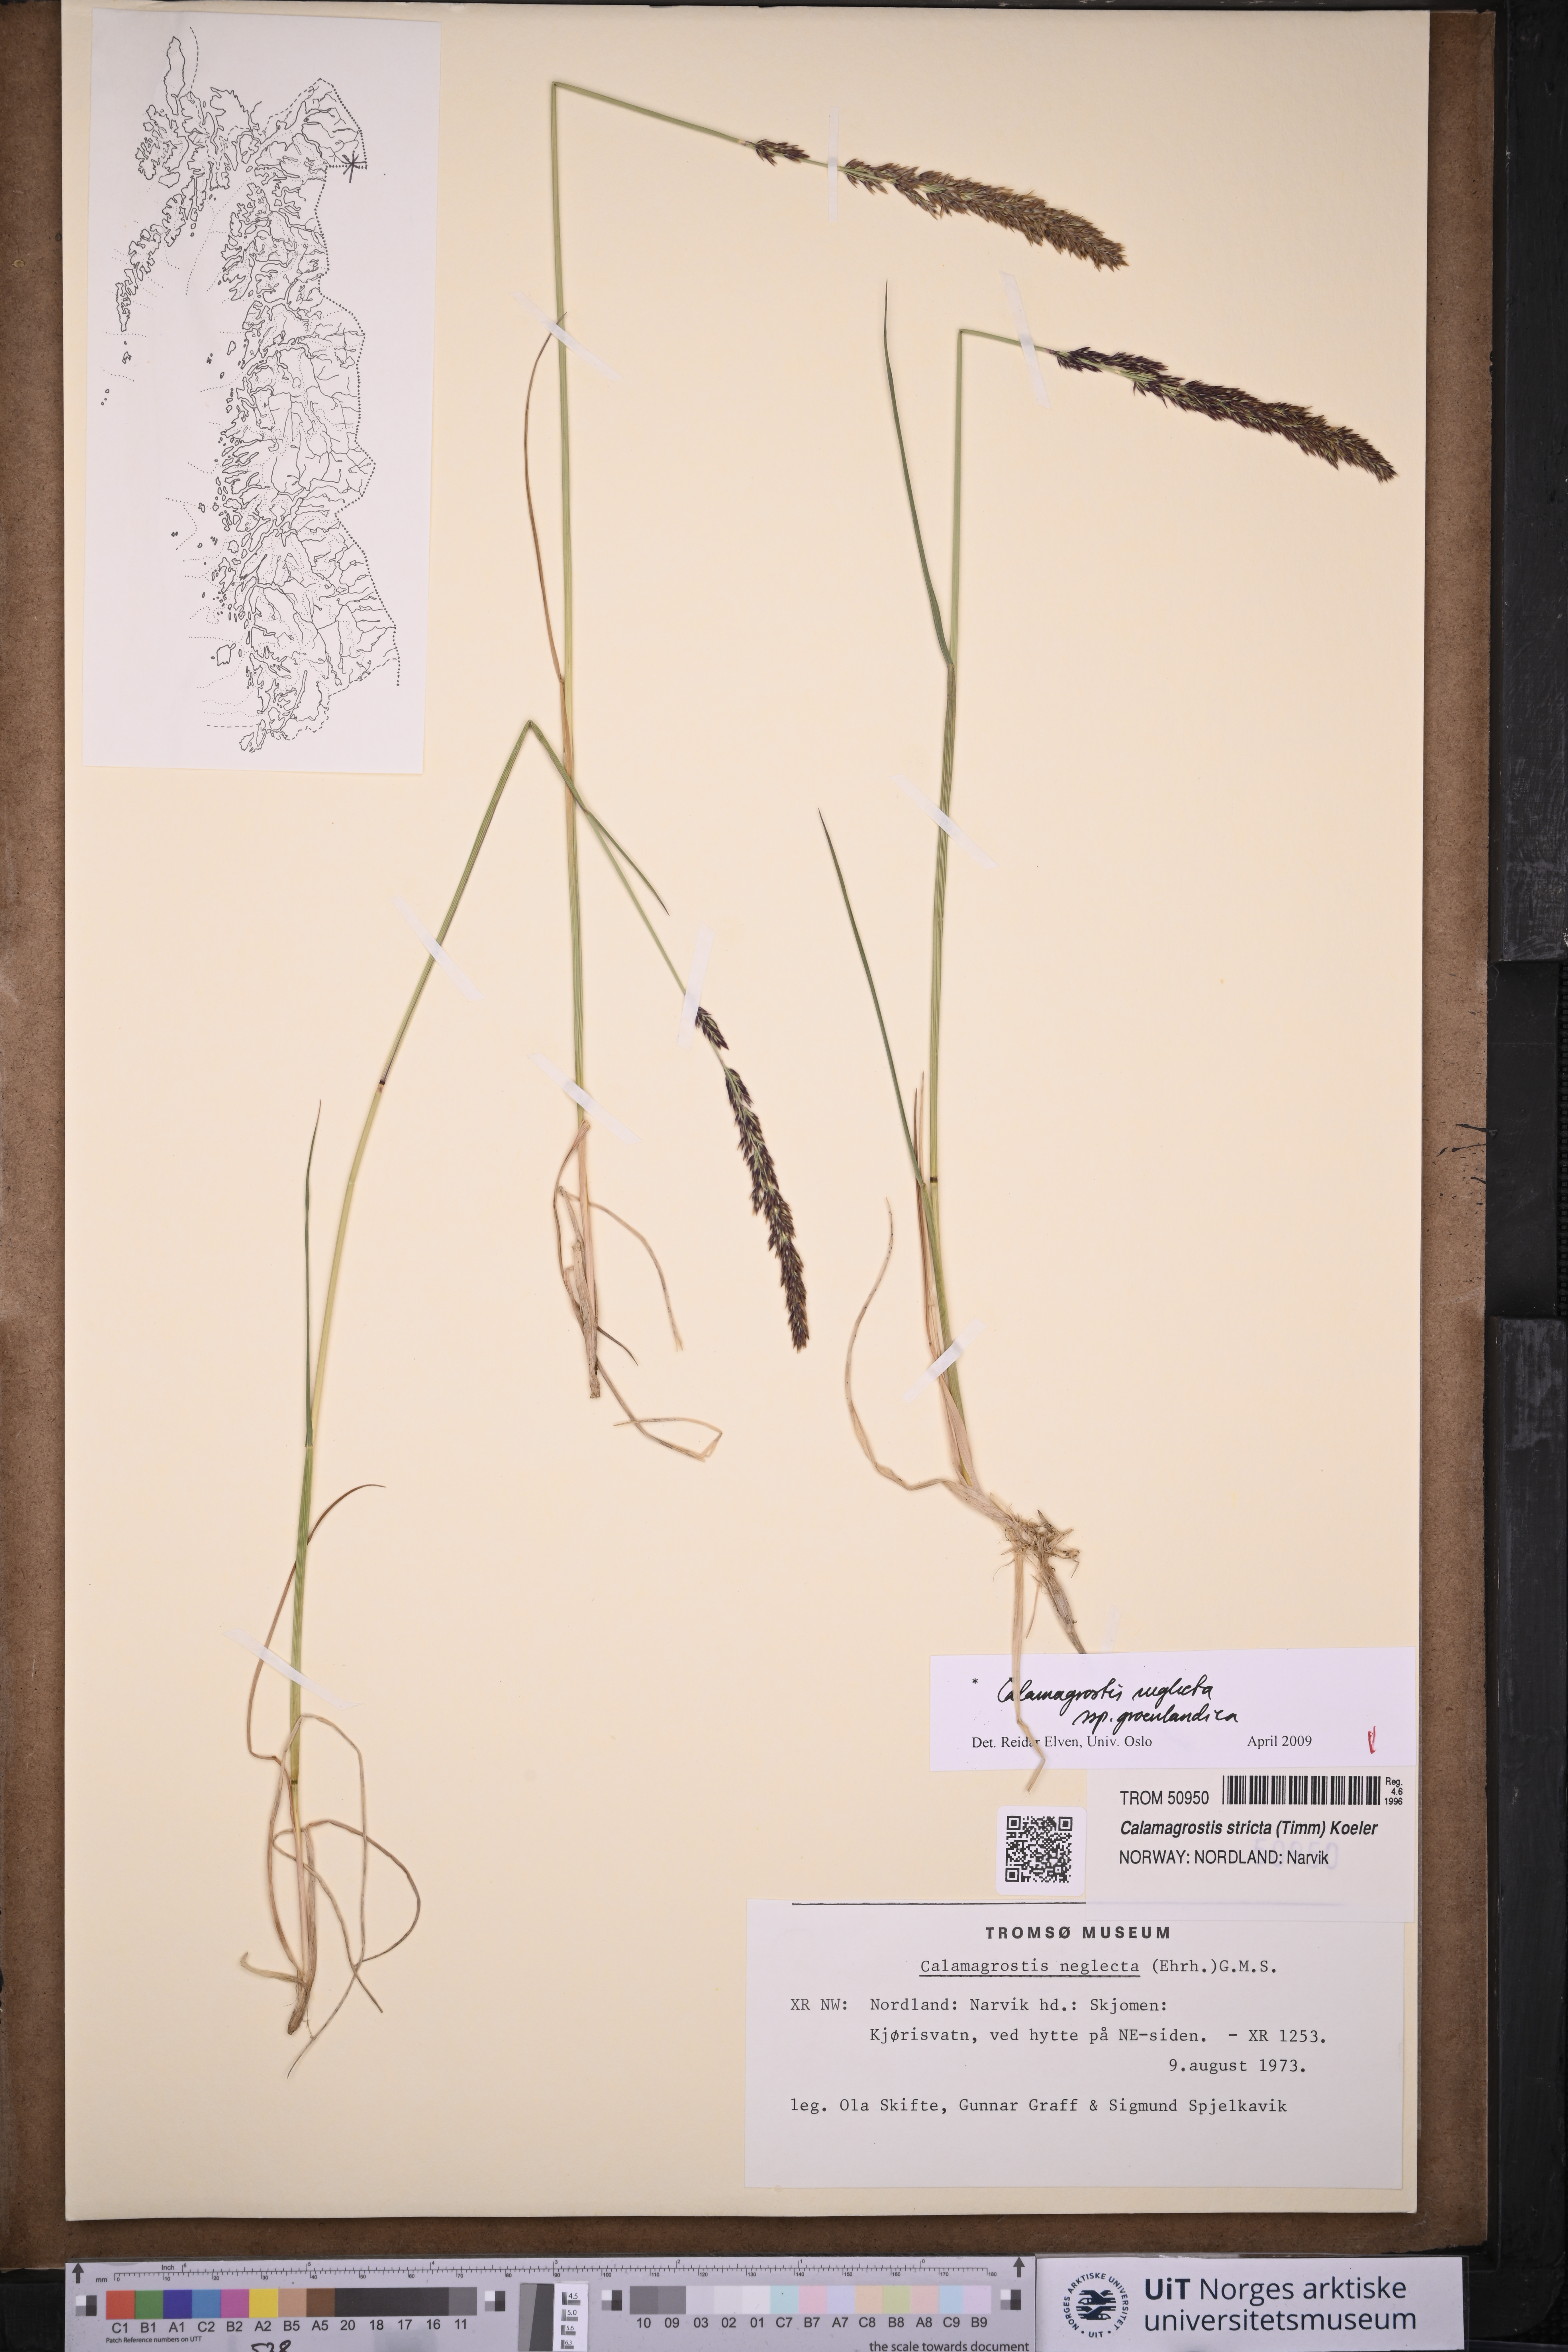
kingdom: Plantae
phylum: Tracheophyta
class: Liliopsida
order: Poales
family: Poaceae
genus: Calamagrostis
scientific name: Calamagrostis stricta
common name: Narrow small-reed
